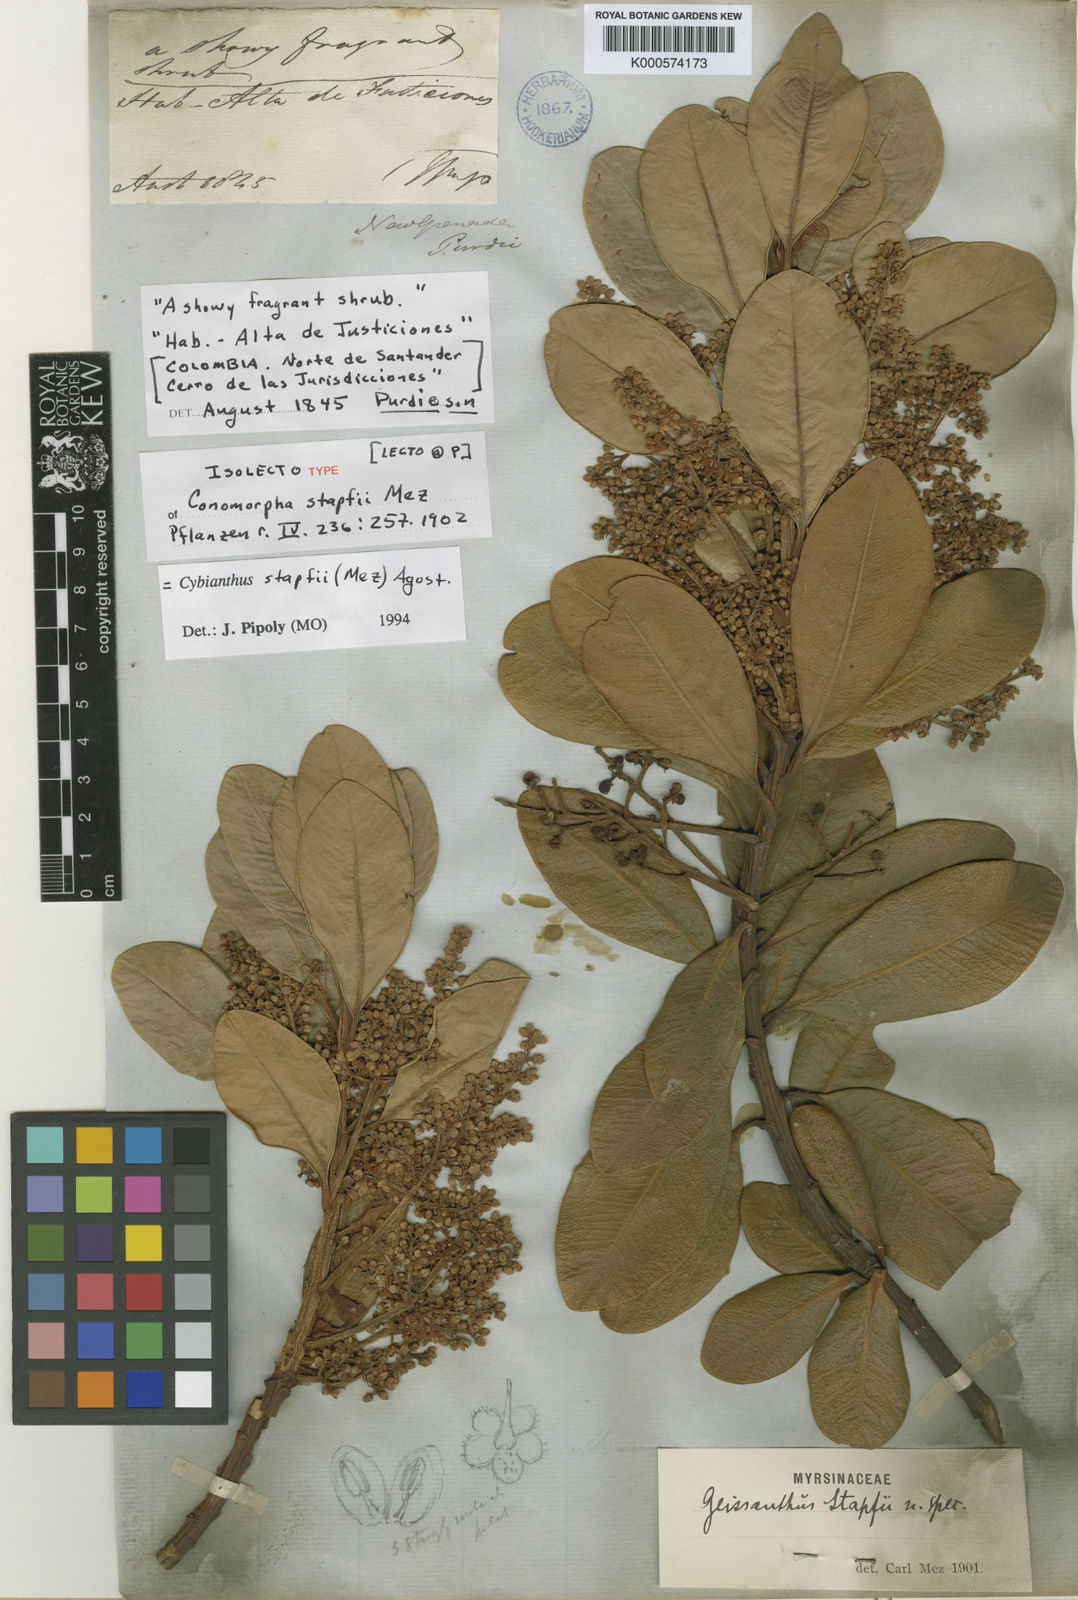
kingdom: Plantae
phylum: Tracheophyta
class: Magnoliopsida
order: Ericales
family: Primulaceae
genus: Cybianthus
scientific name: Cybianthus stapfii
